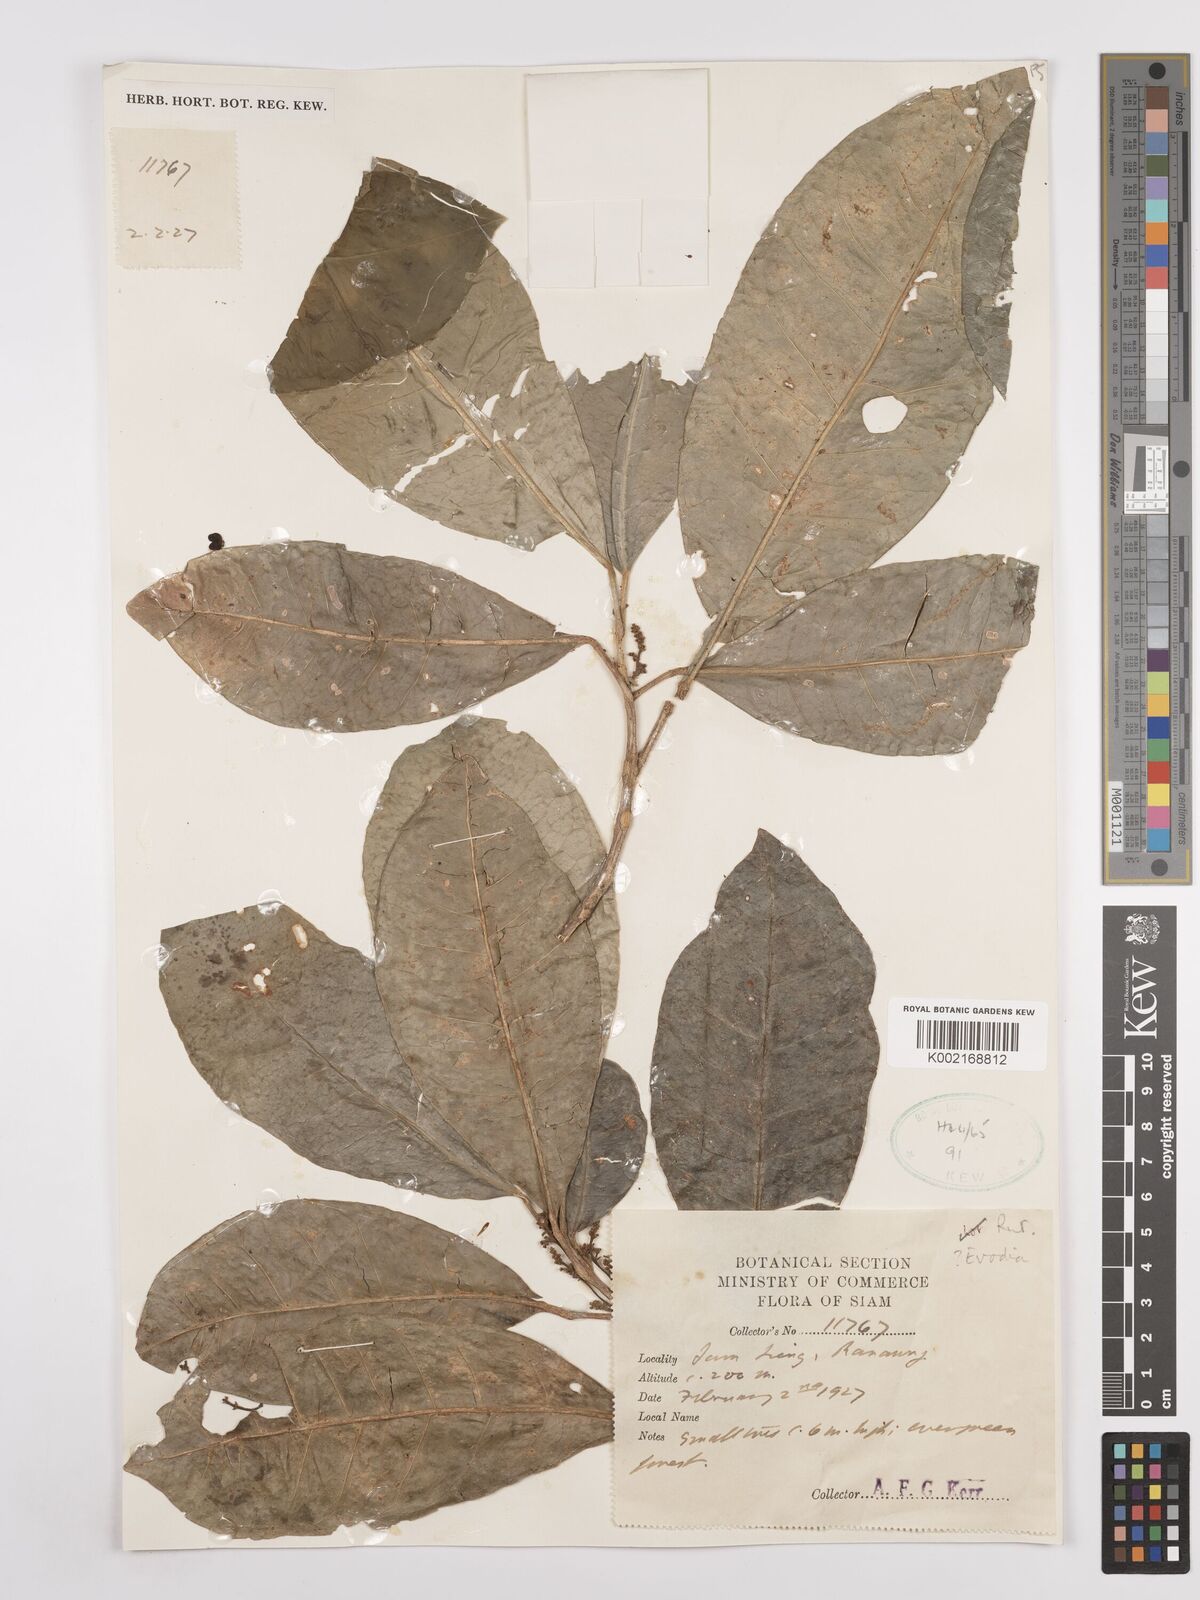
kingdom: Plantae
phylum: Tracheophyta
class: Magnoliopsida
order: Sapindales
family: Rutaceae
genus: Euodia
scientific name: Euodia
